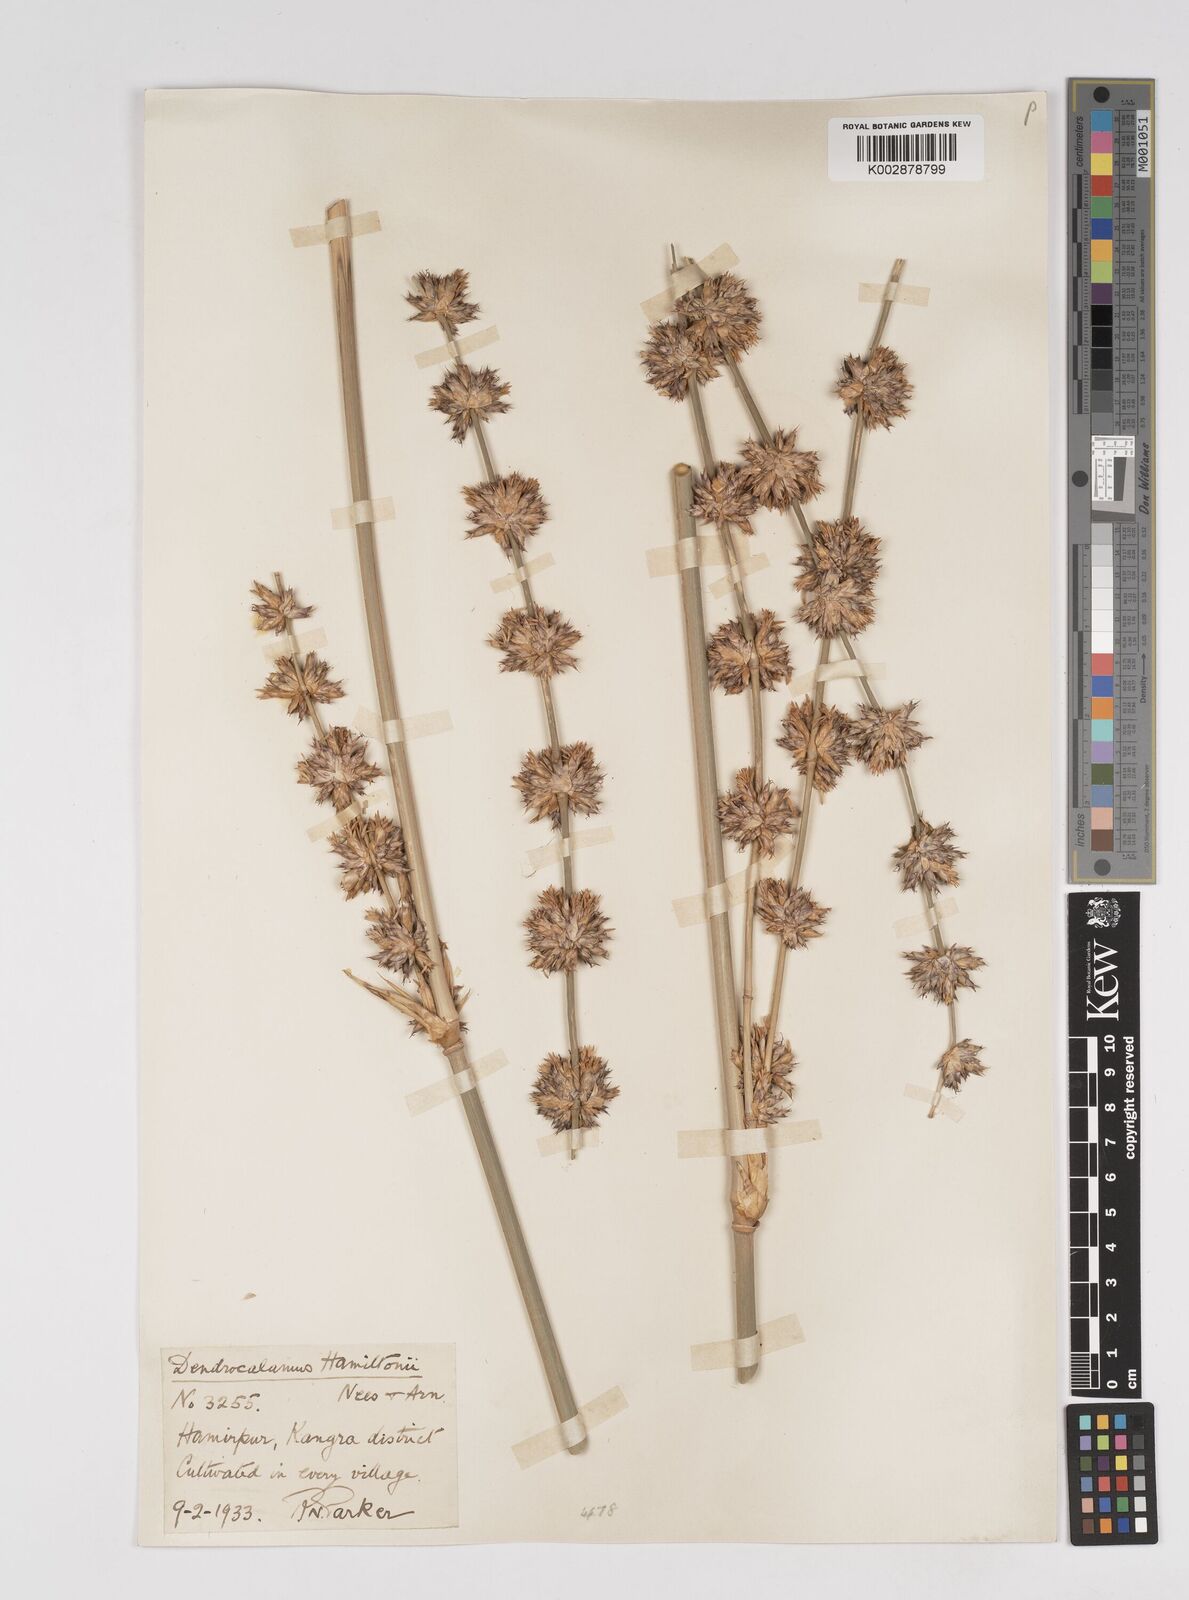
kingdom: Plantae
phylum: Tracheophyta
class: Liliopsida
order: Poales
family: Poaceae
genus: Dendrocalamus
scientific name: Dendrocalamus hamiltonii
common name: Tama bamboo
